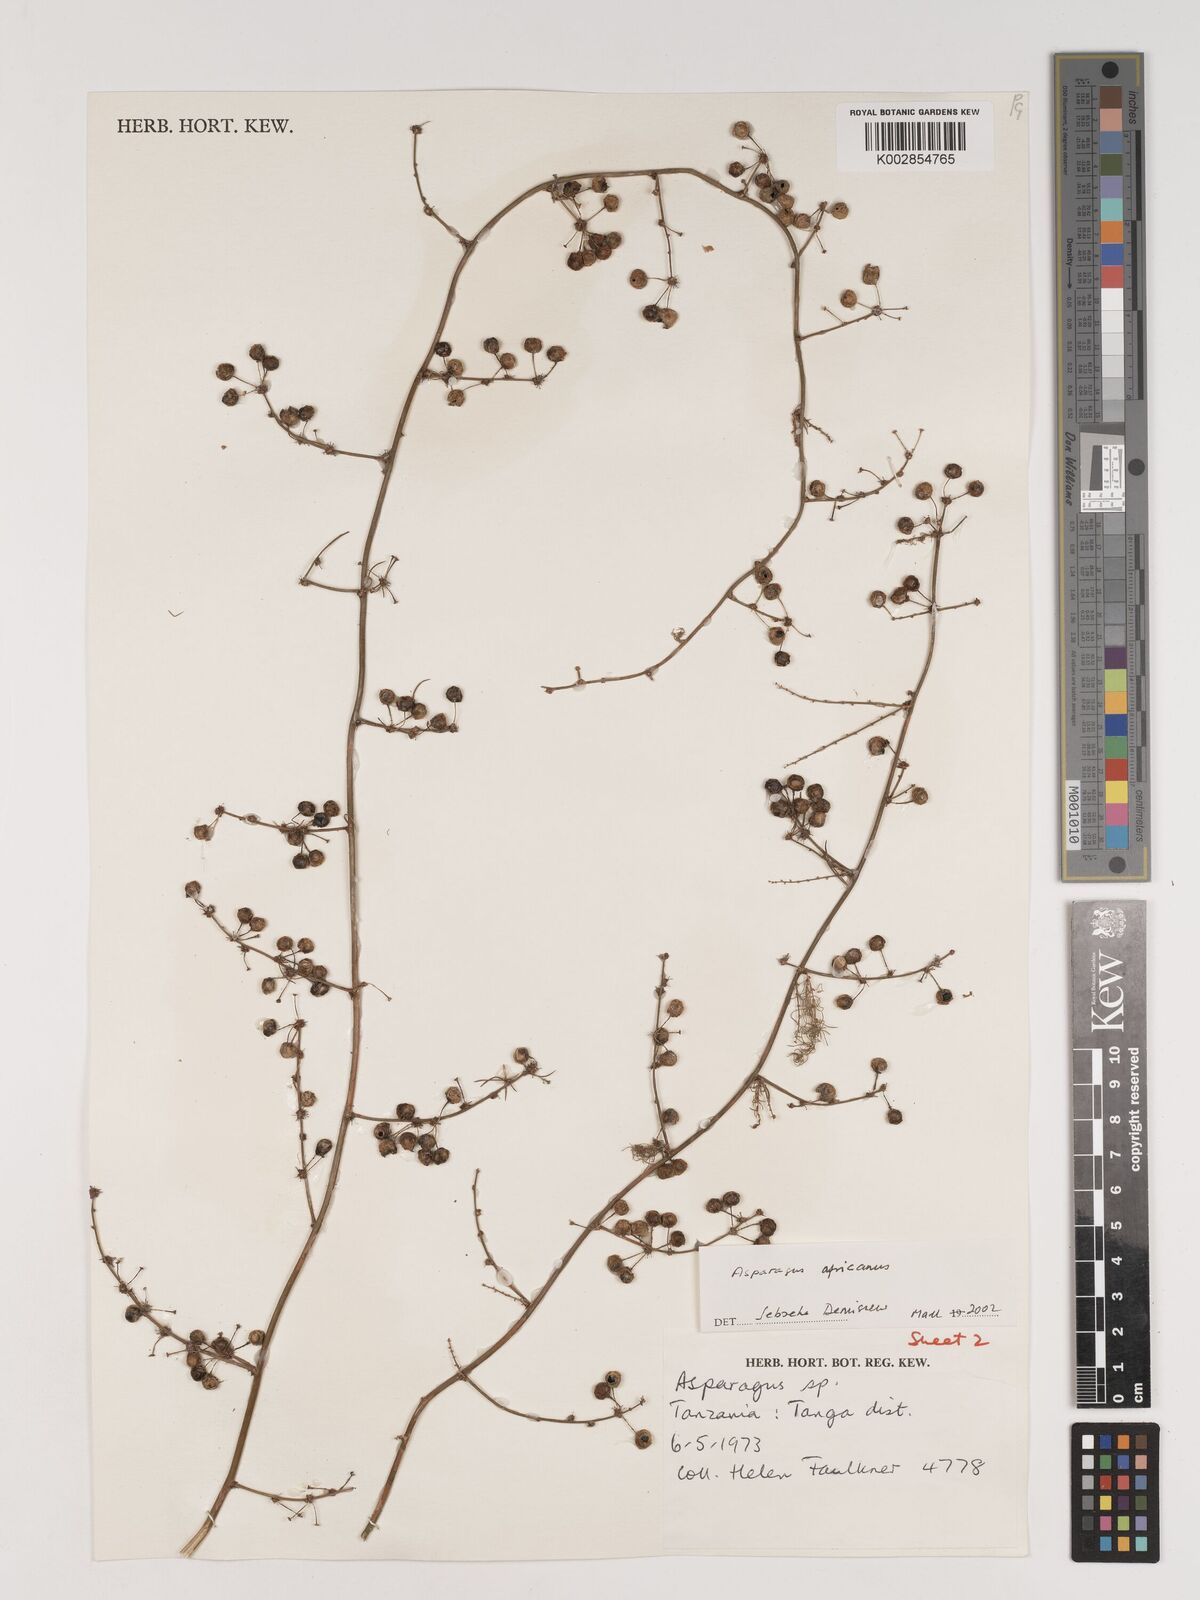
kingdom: Plantae
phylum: Tracheophyta
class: Liliopsida
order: Asparagales
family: Asparagaceae
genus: Asparagus
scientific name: Asparagus africanus
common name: Asparagus-fern
